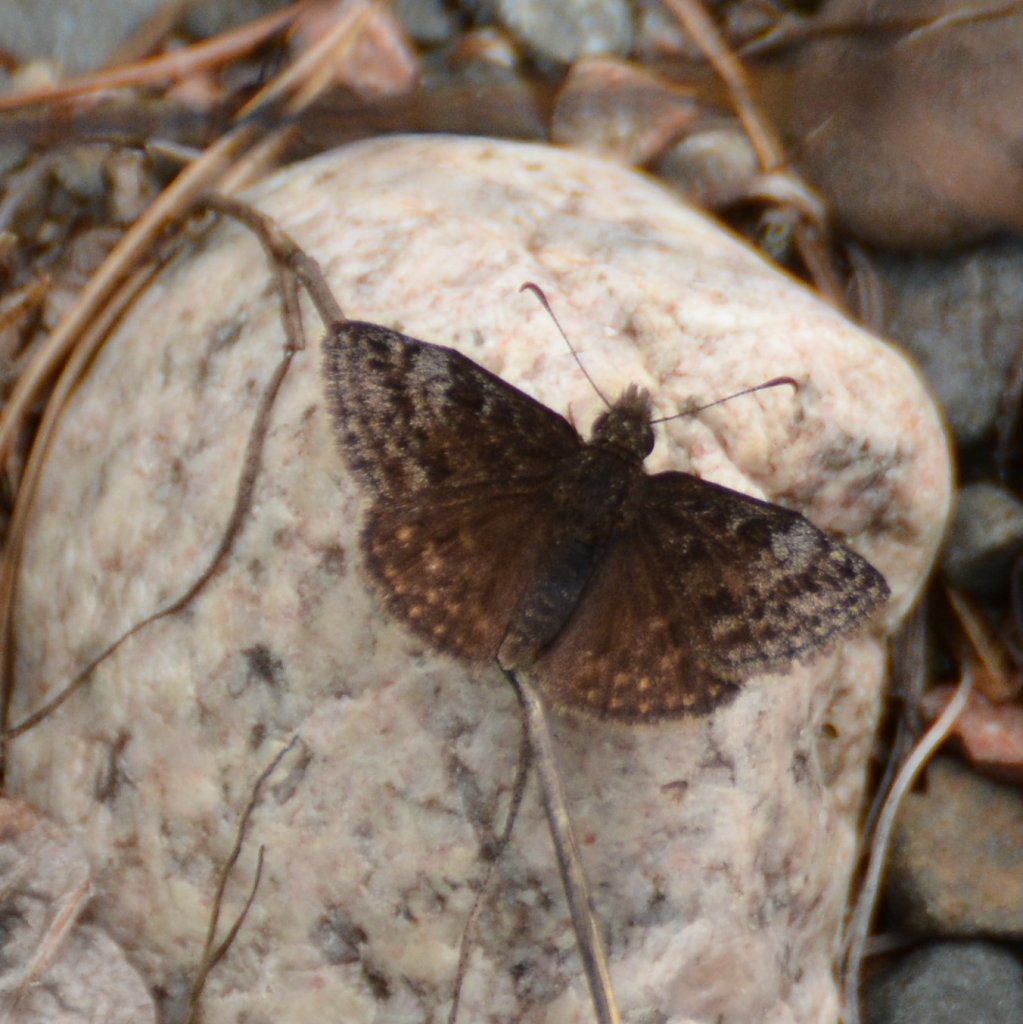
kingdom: Animalia
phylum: Arthropoda
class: Insecta
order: Lepidoptera
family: Hesperiidae
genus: Erynnis
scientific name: Erynnis icelus
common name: Dreamy Duskywing
